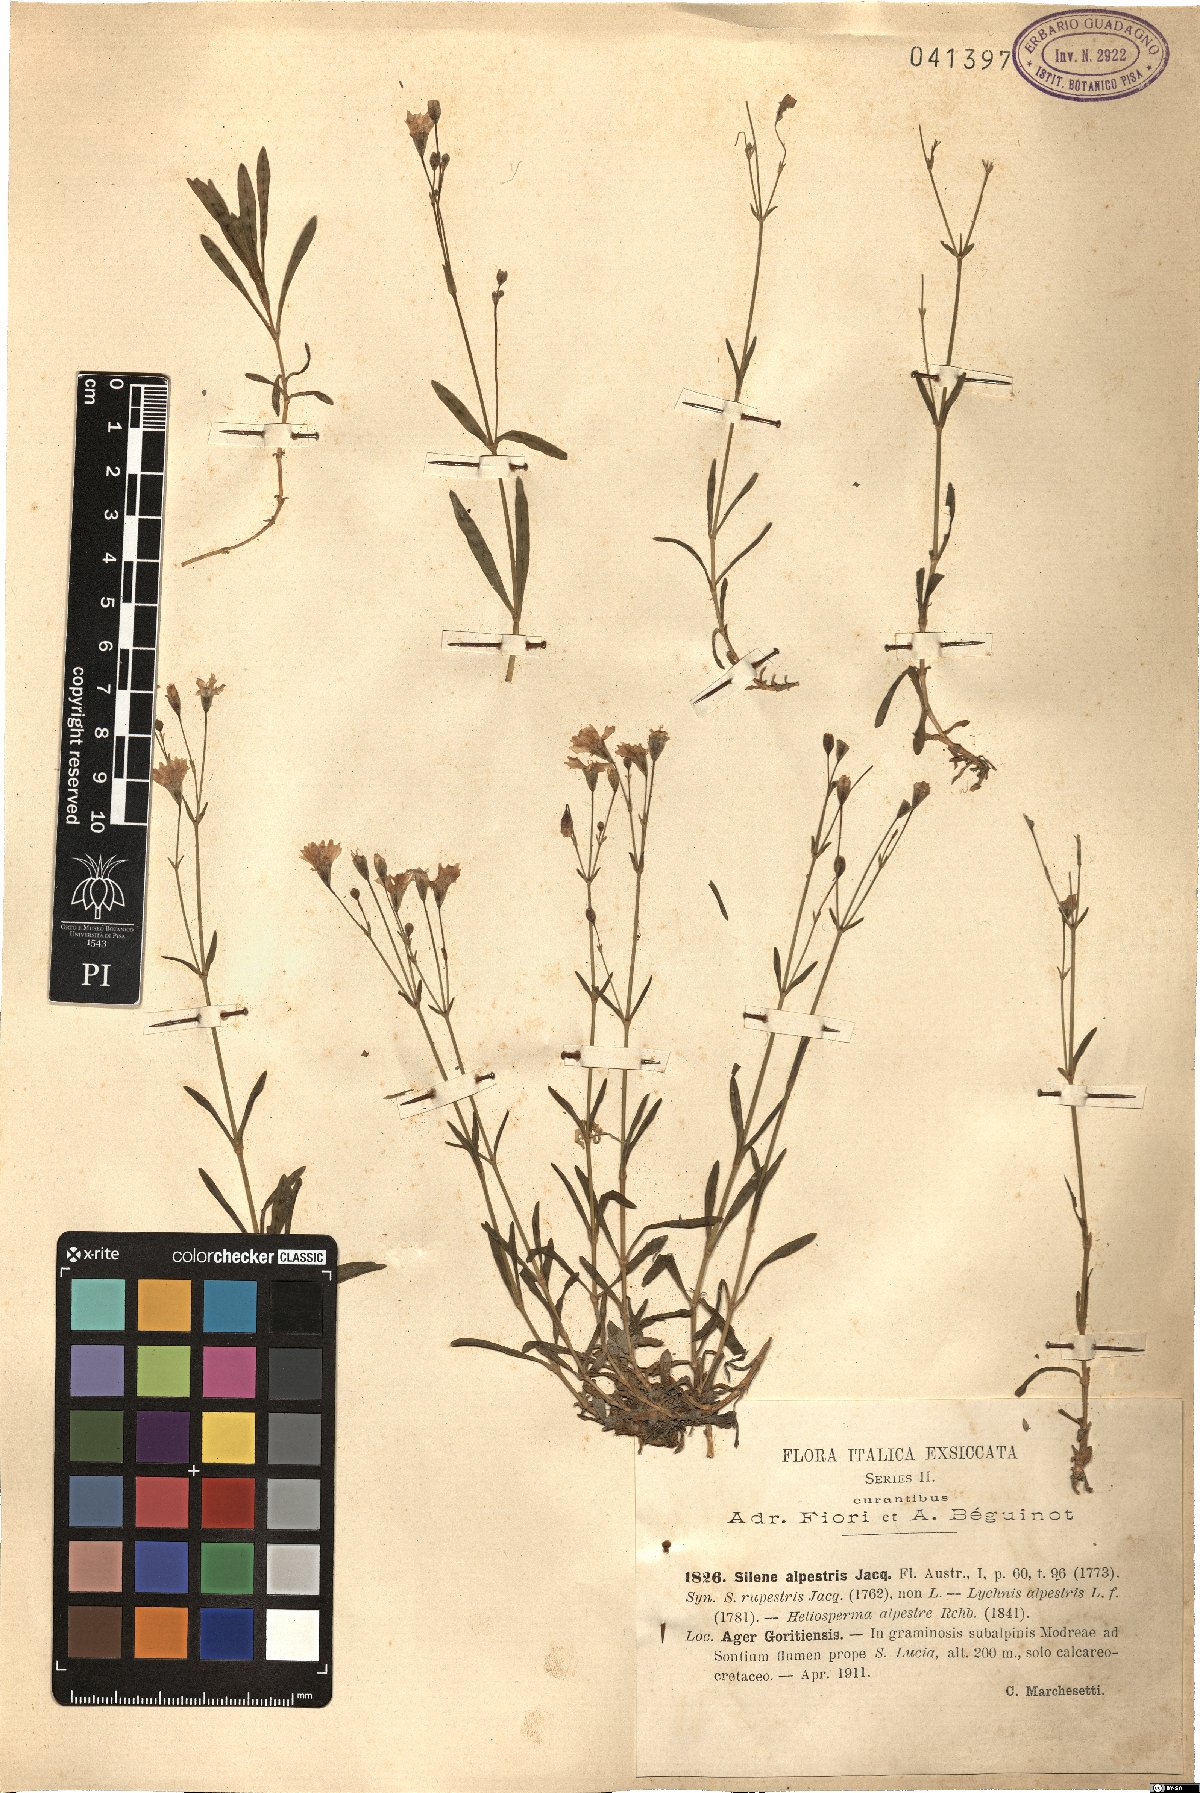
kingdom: Plantae
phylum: Tracheophyta
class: Magnoliopsida
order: Caryophyllales
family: Caryophyllaceae
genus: Heliosperma
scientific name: Heliosperma alpestre
